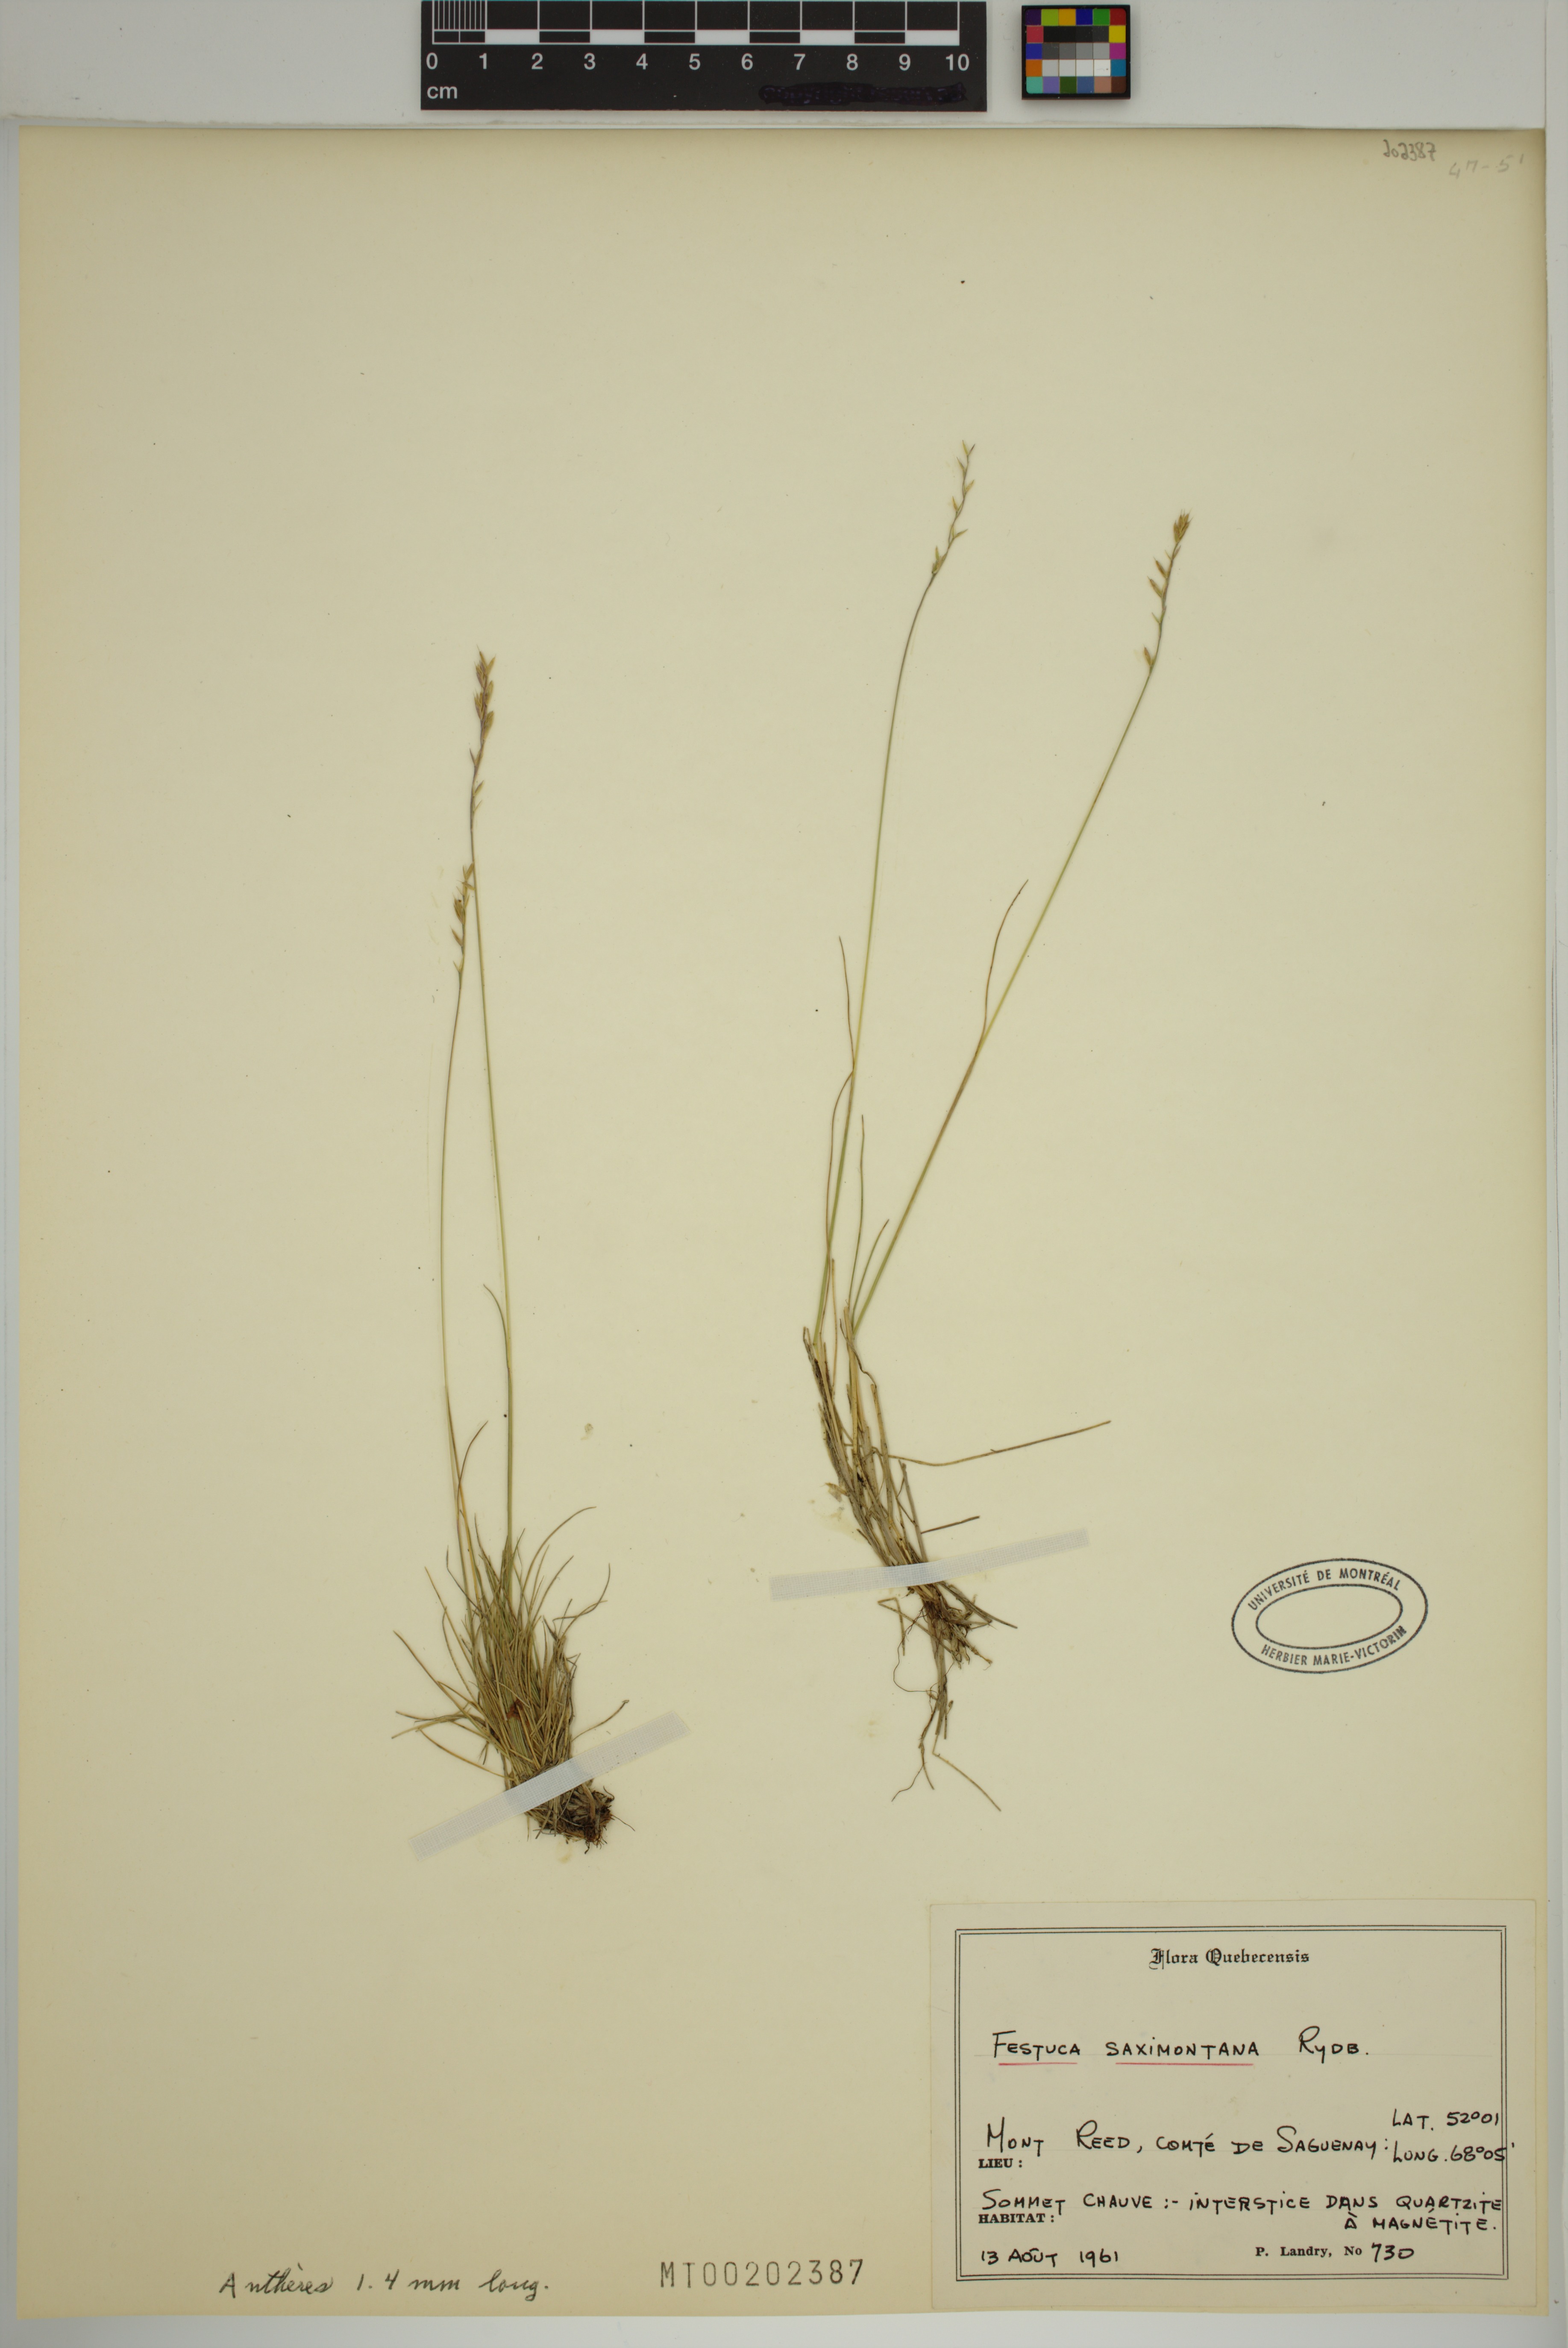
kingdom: Plantae
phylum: Tracheophyta
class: Liliopsida
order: Poales
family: Poaceae
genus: Festuca
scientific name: Festuca saximontana
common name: Mountain fescue
